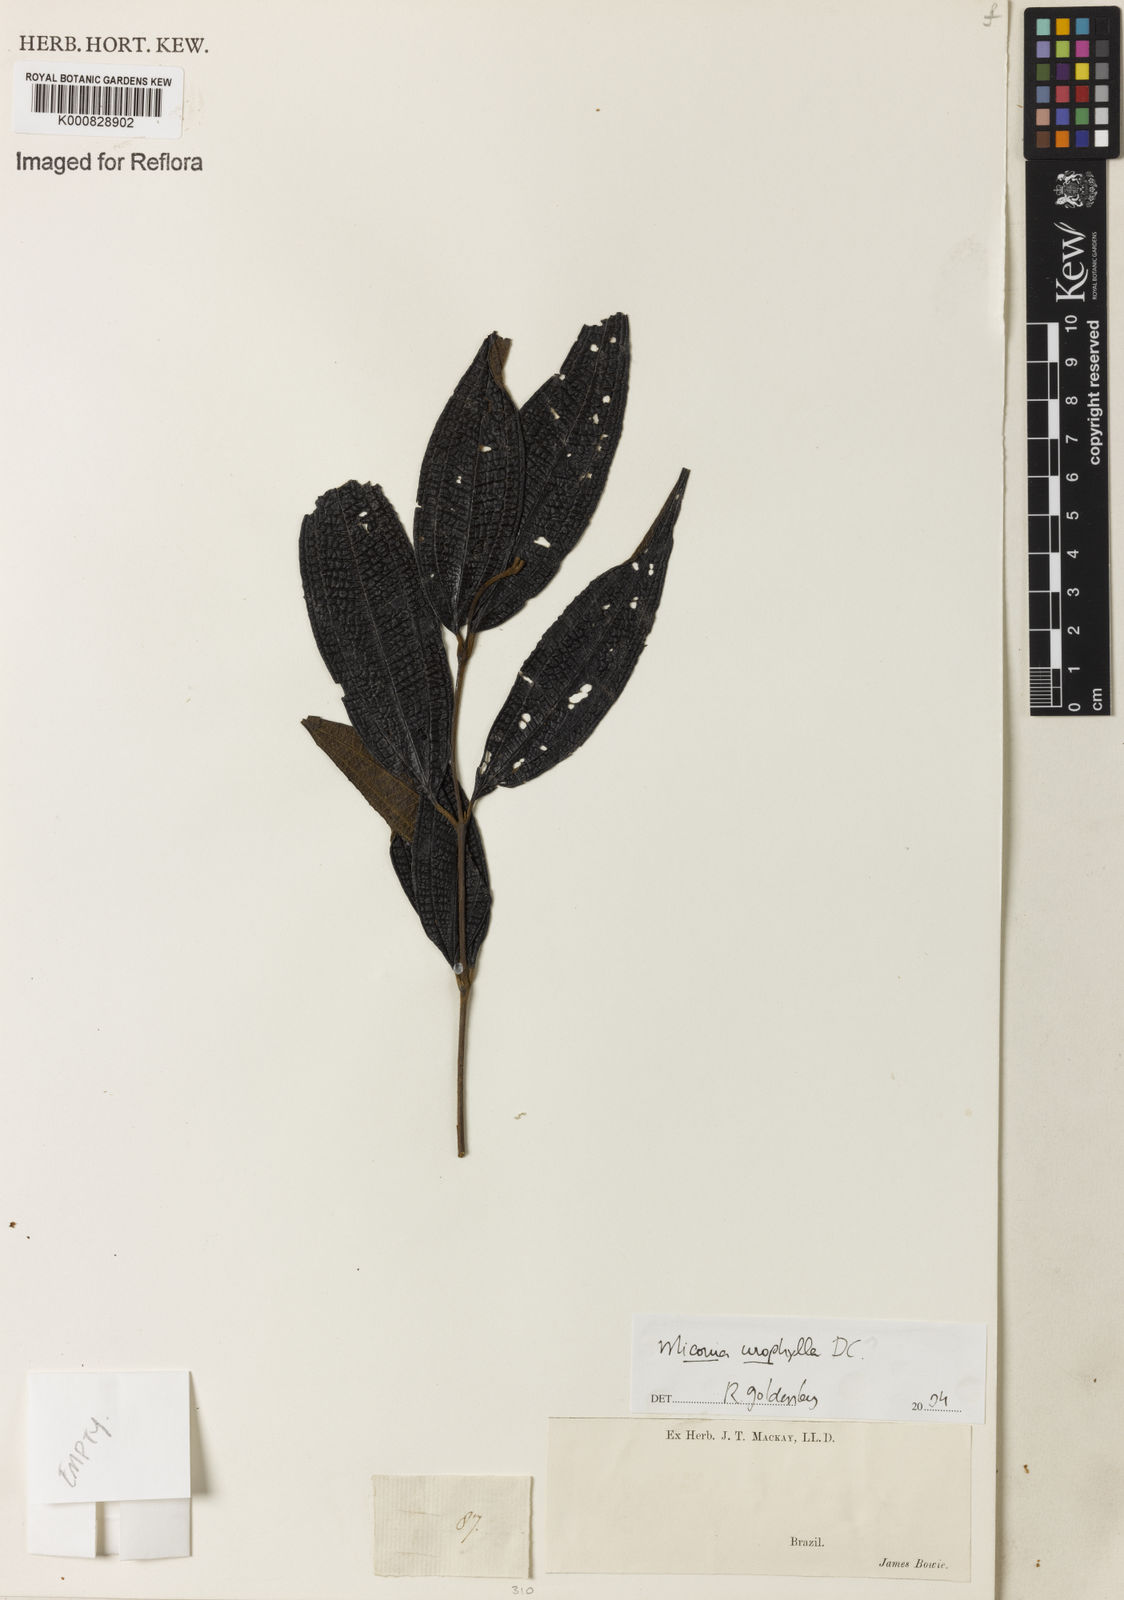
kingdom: Plantae
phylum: Tracheophyta
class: Magnoliopsida
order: Myrtales
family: Melastomataceae
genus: Miconia
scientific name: Miconia urophylla
